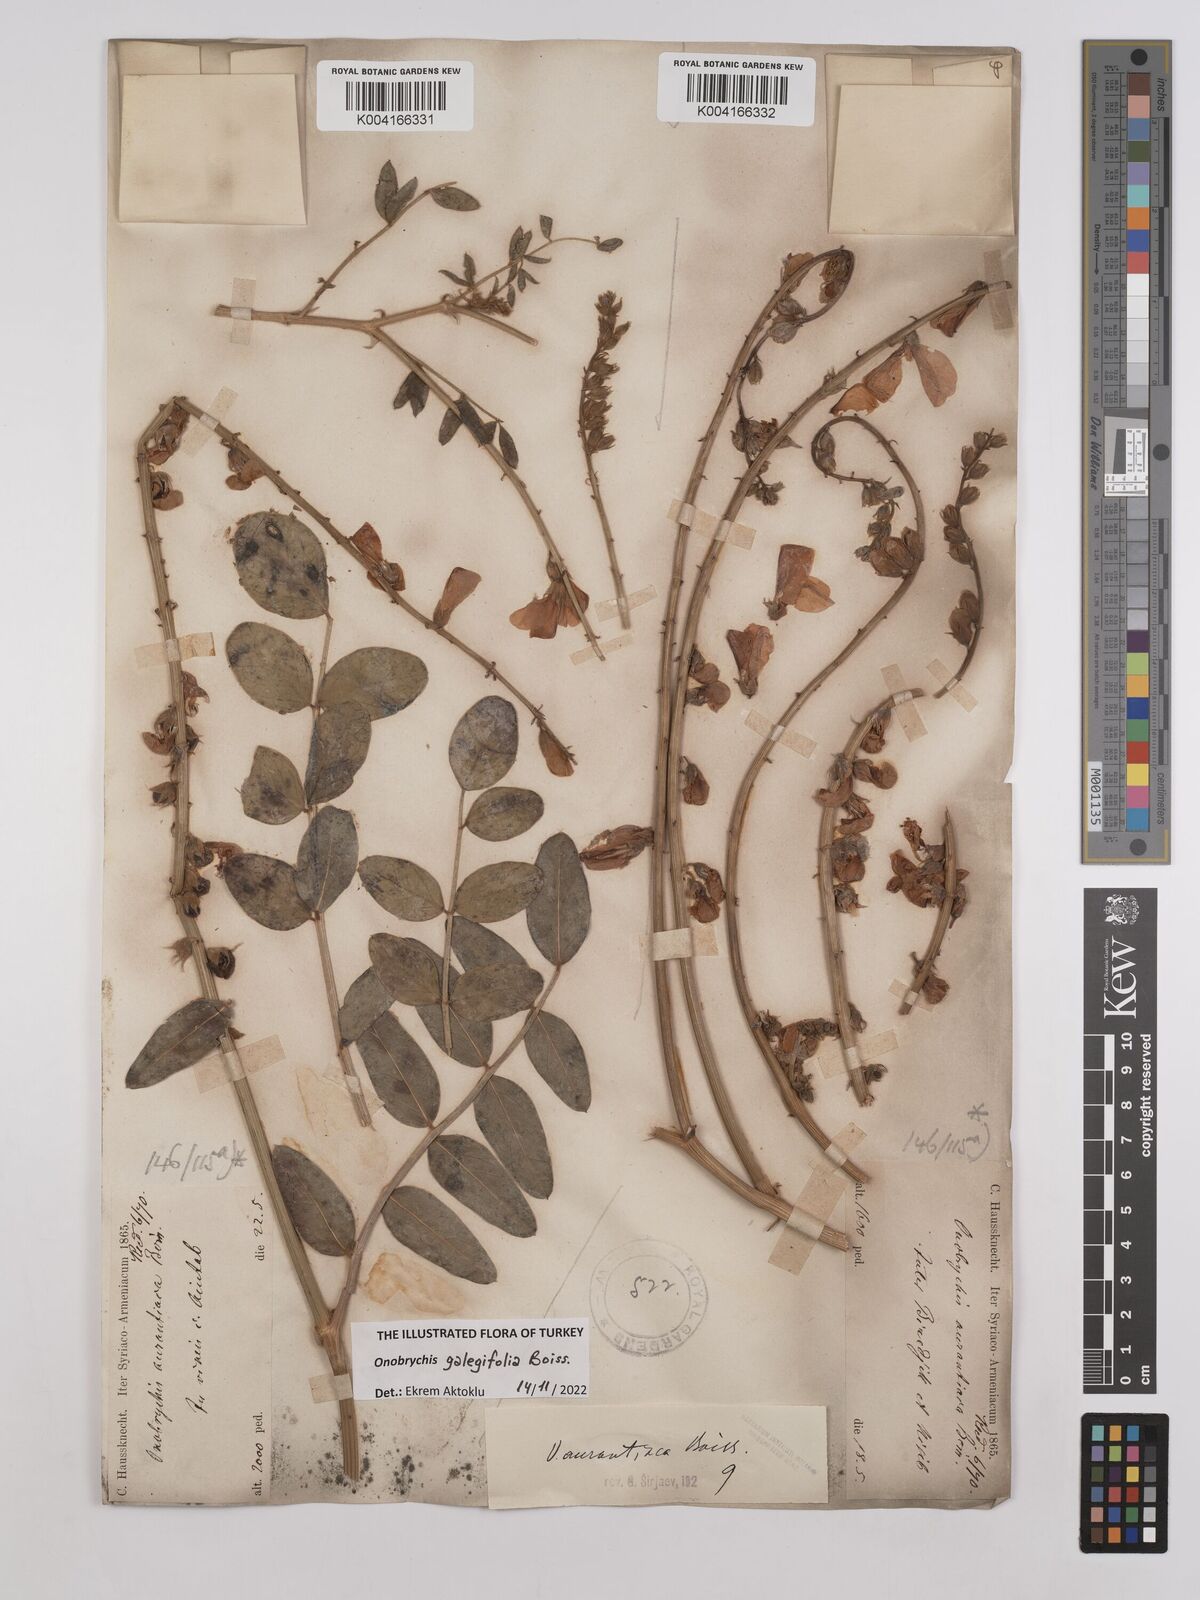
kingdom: Plantae
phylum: Tracheophyta
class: Magnoliopsida
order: Fabales
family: Fabaceae
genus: Onobrychis
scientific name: Onobrychis galegifolia
